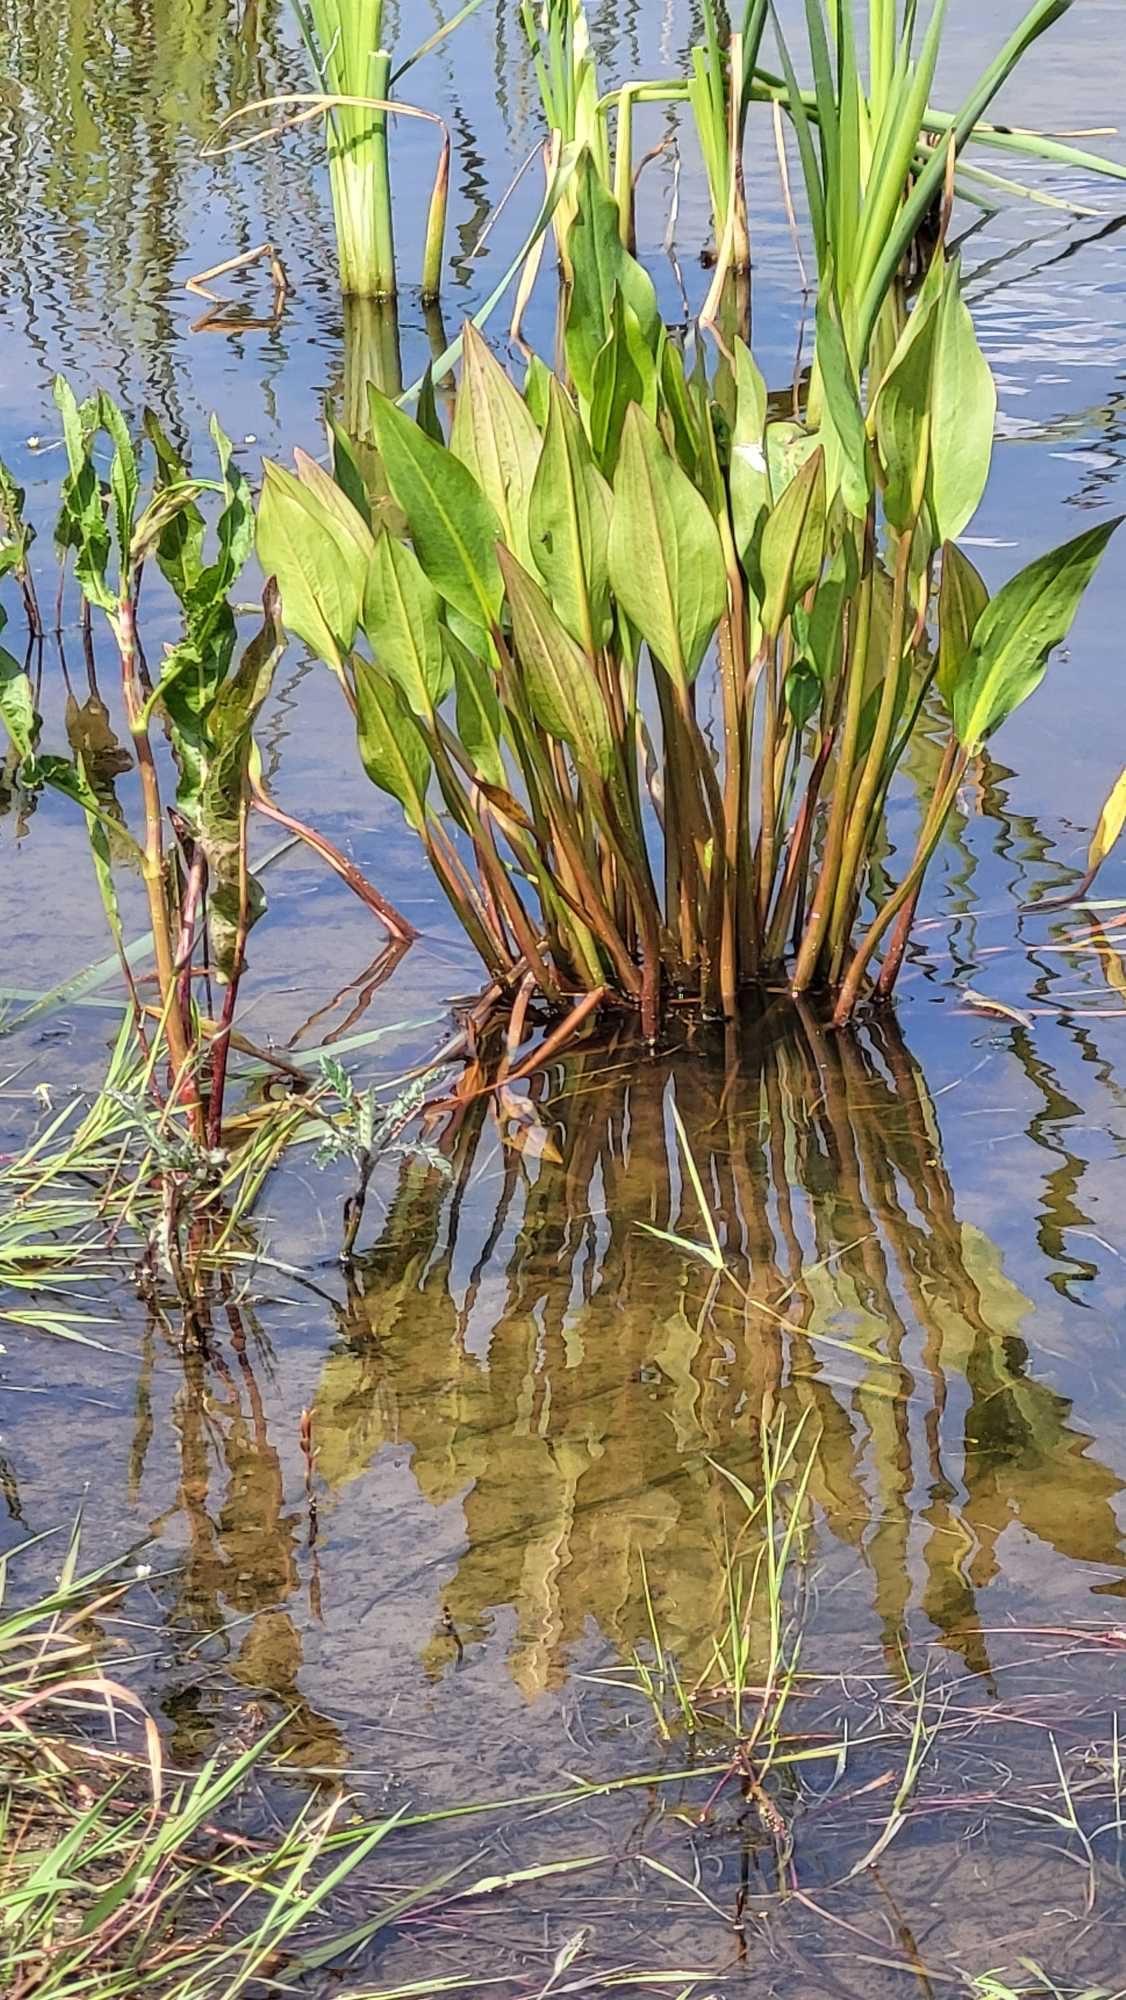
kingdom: Plantae
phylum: Tracheophyta
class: Liliopsida
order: Alismatales
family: Alismataceae
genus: Alisma
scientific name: Alisma plantago-aquatica
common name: Vejbred-skeblad
